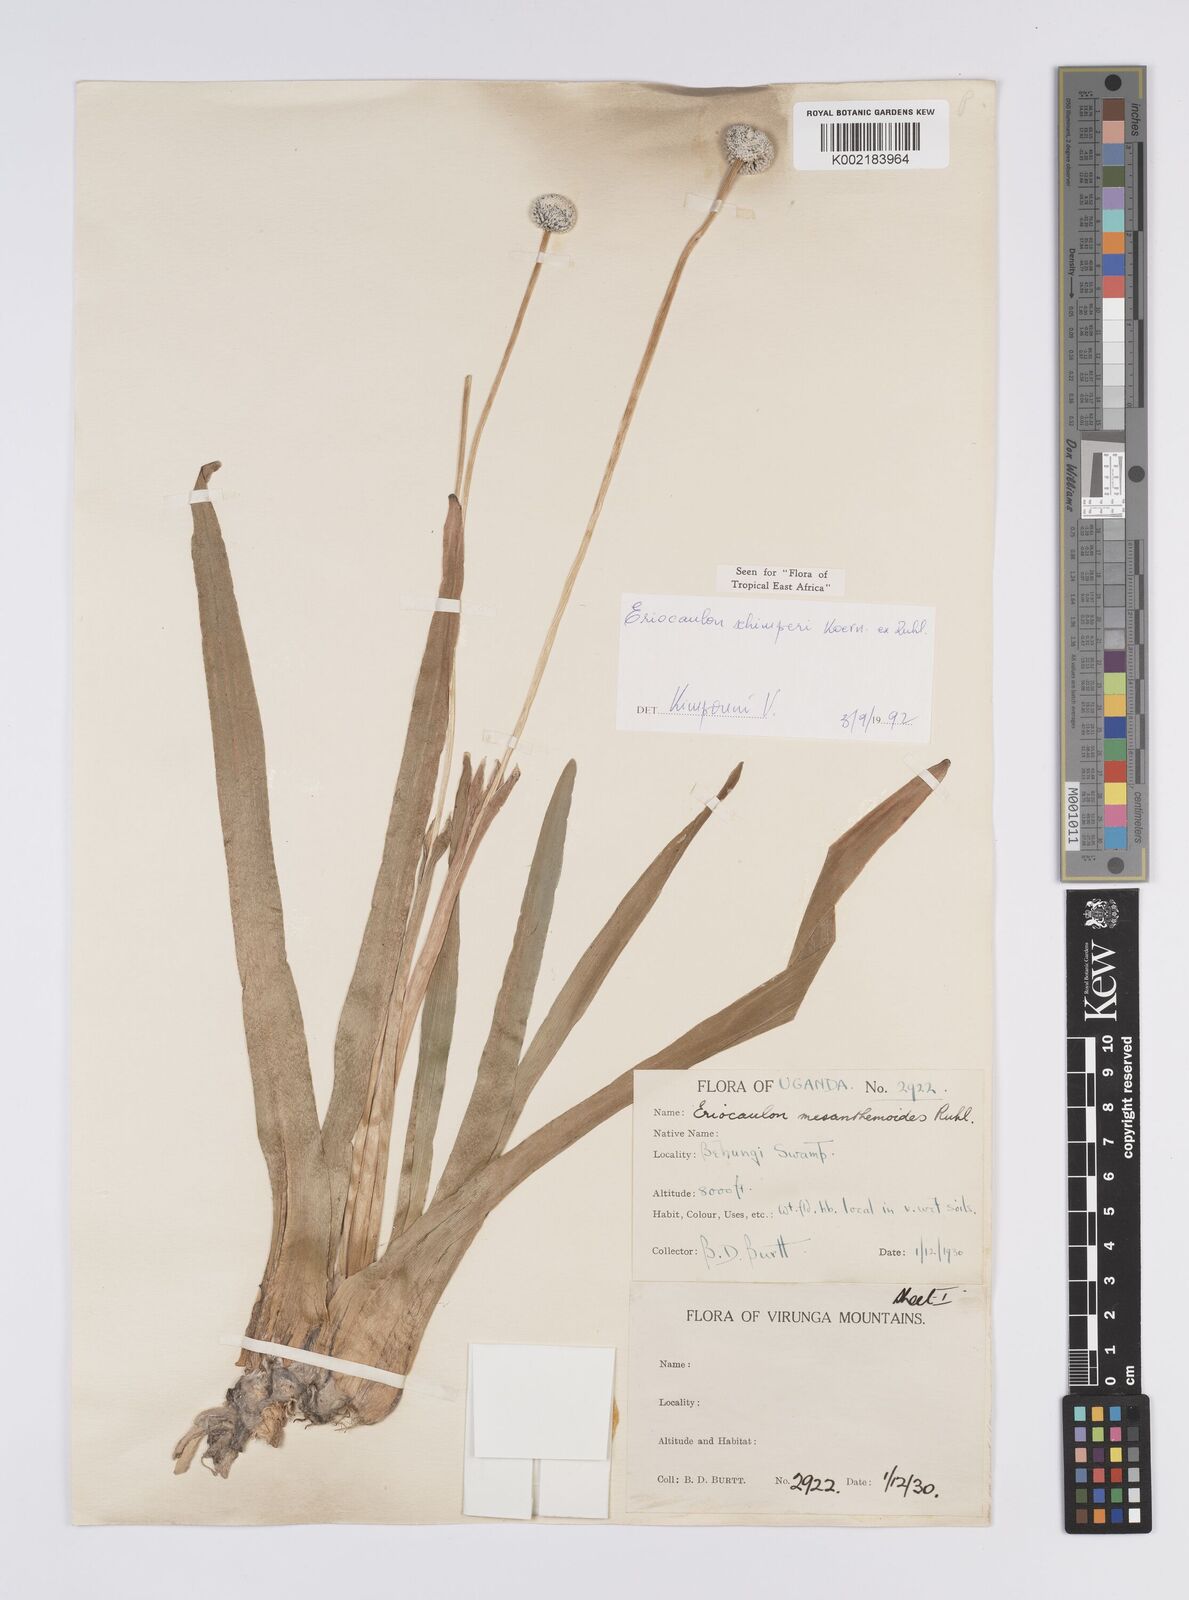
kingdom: Plantae
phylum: Tracheophyta
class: Liliopsida
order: Poales
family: Eriocaulaceae
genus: Eriocaulon
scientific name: Eriocaulon schimperi
